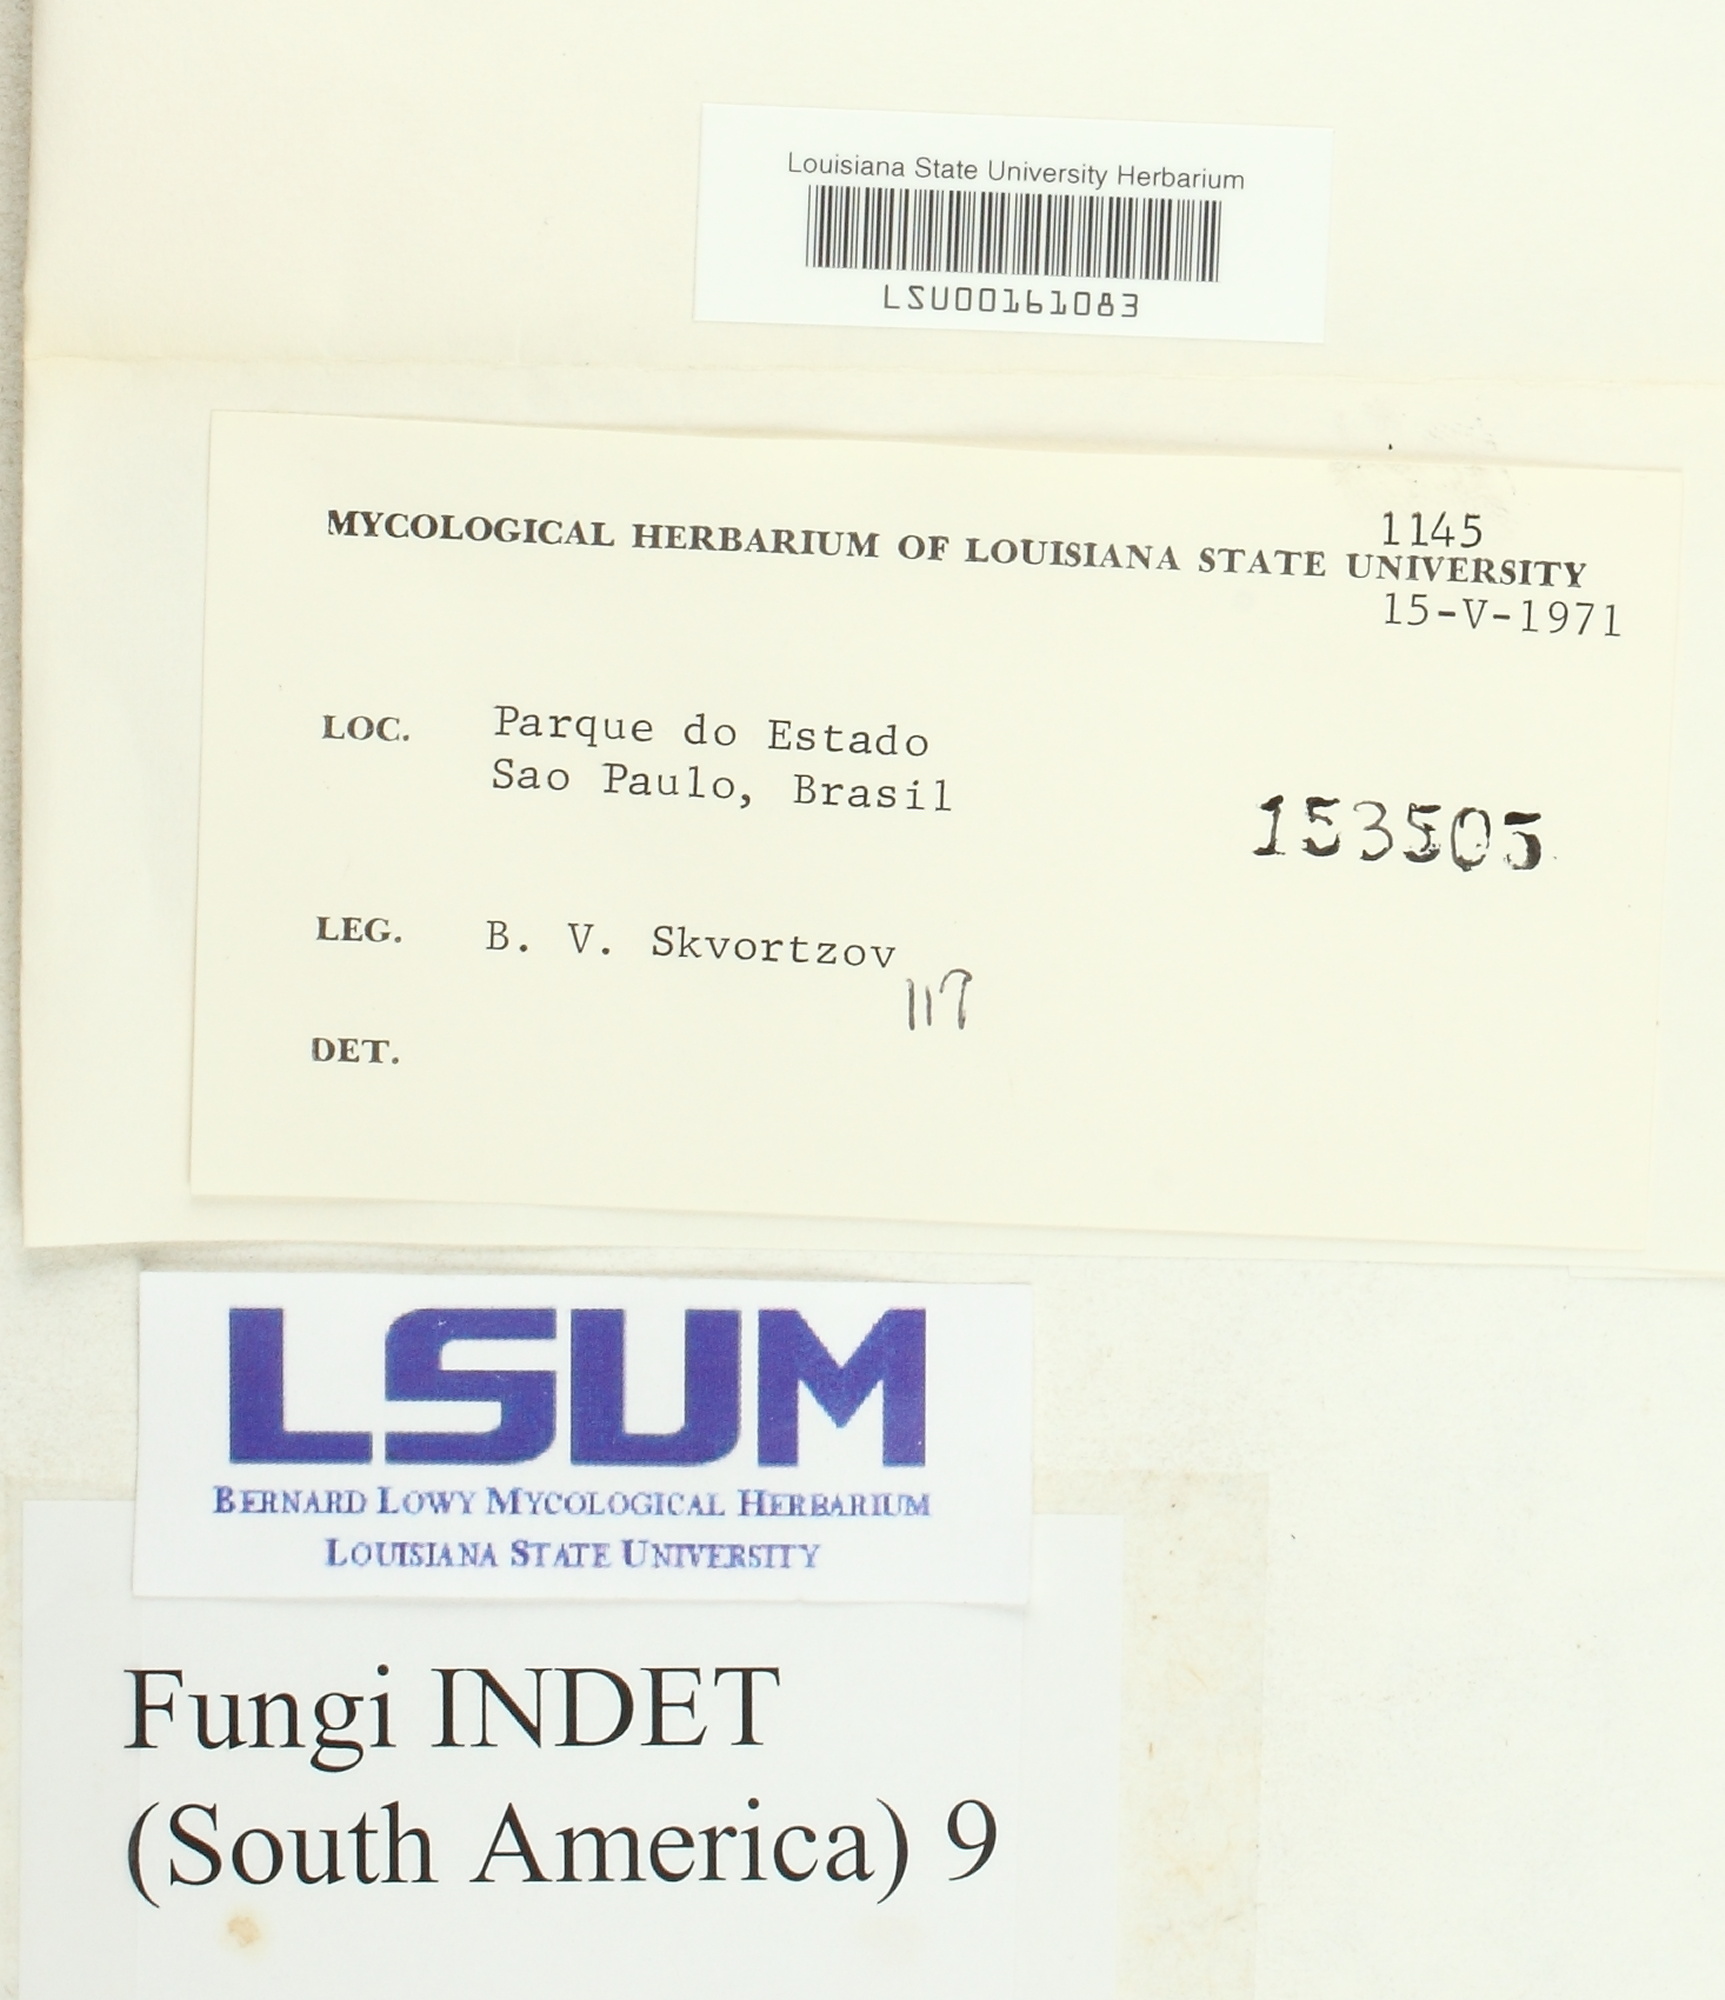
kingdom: Fungi
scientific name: Fungi
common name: Fungi
